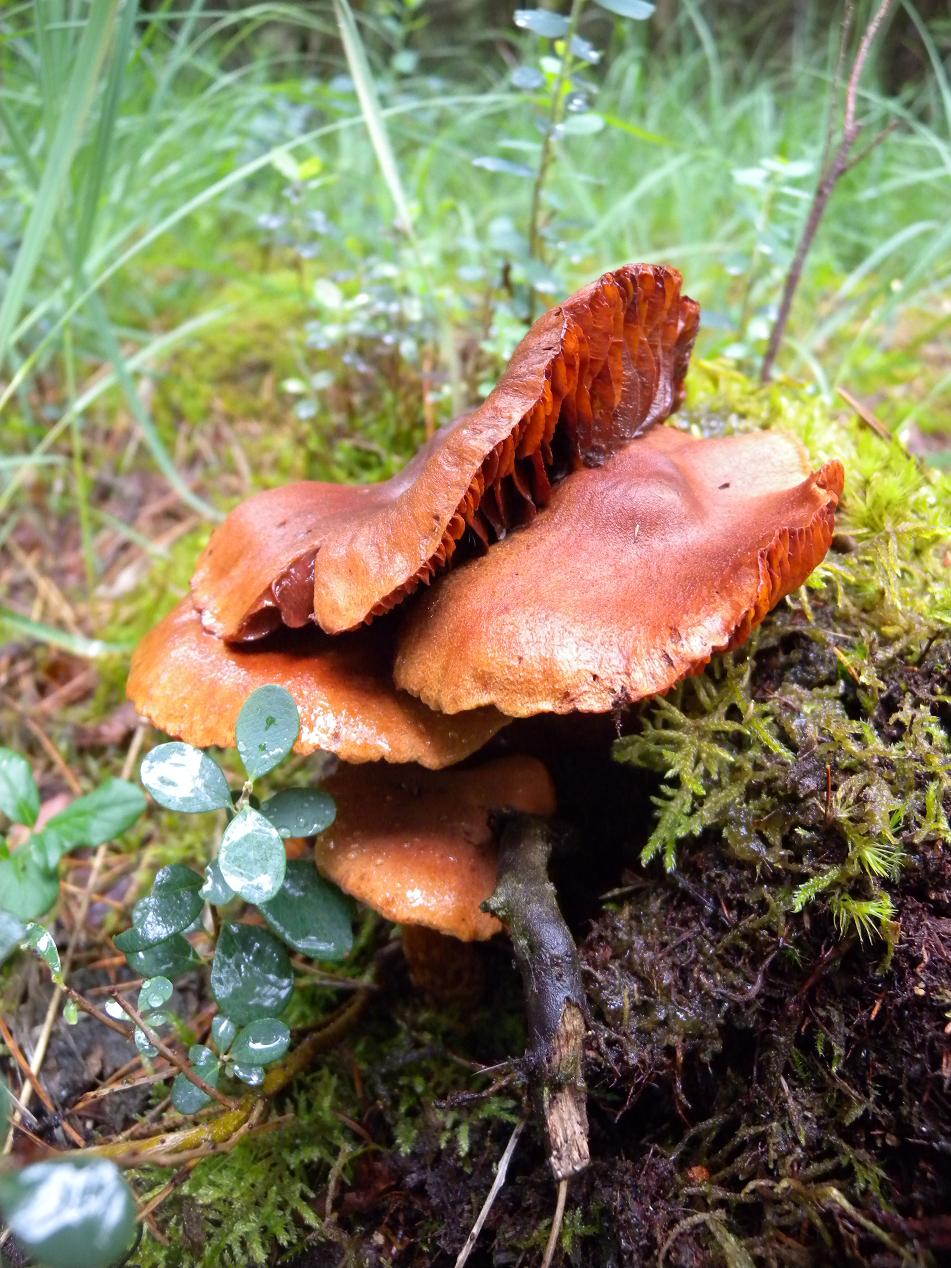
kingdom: Fungi
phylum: Basidiomycota
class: Agaricomycetes
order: Agaricales
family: Cortinariaceae
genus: Cortinarius
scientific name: Cortinarius rubellus
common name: puklet gift-slørhat
